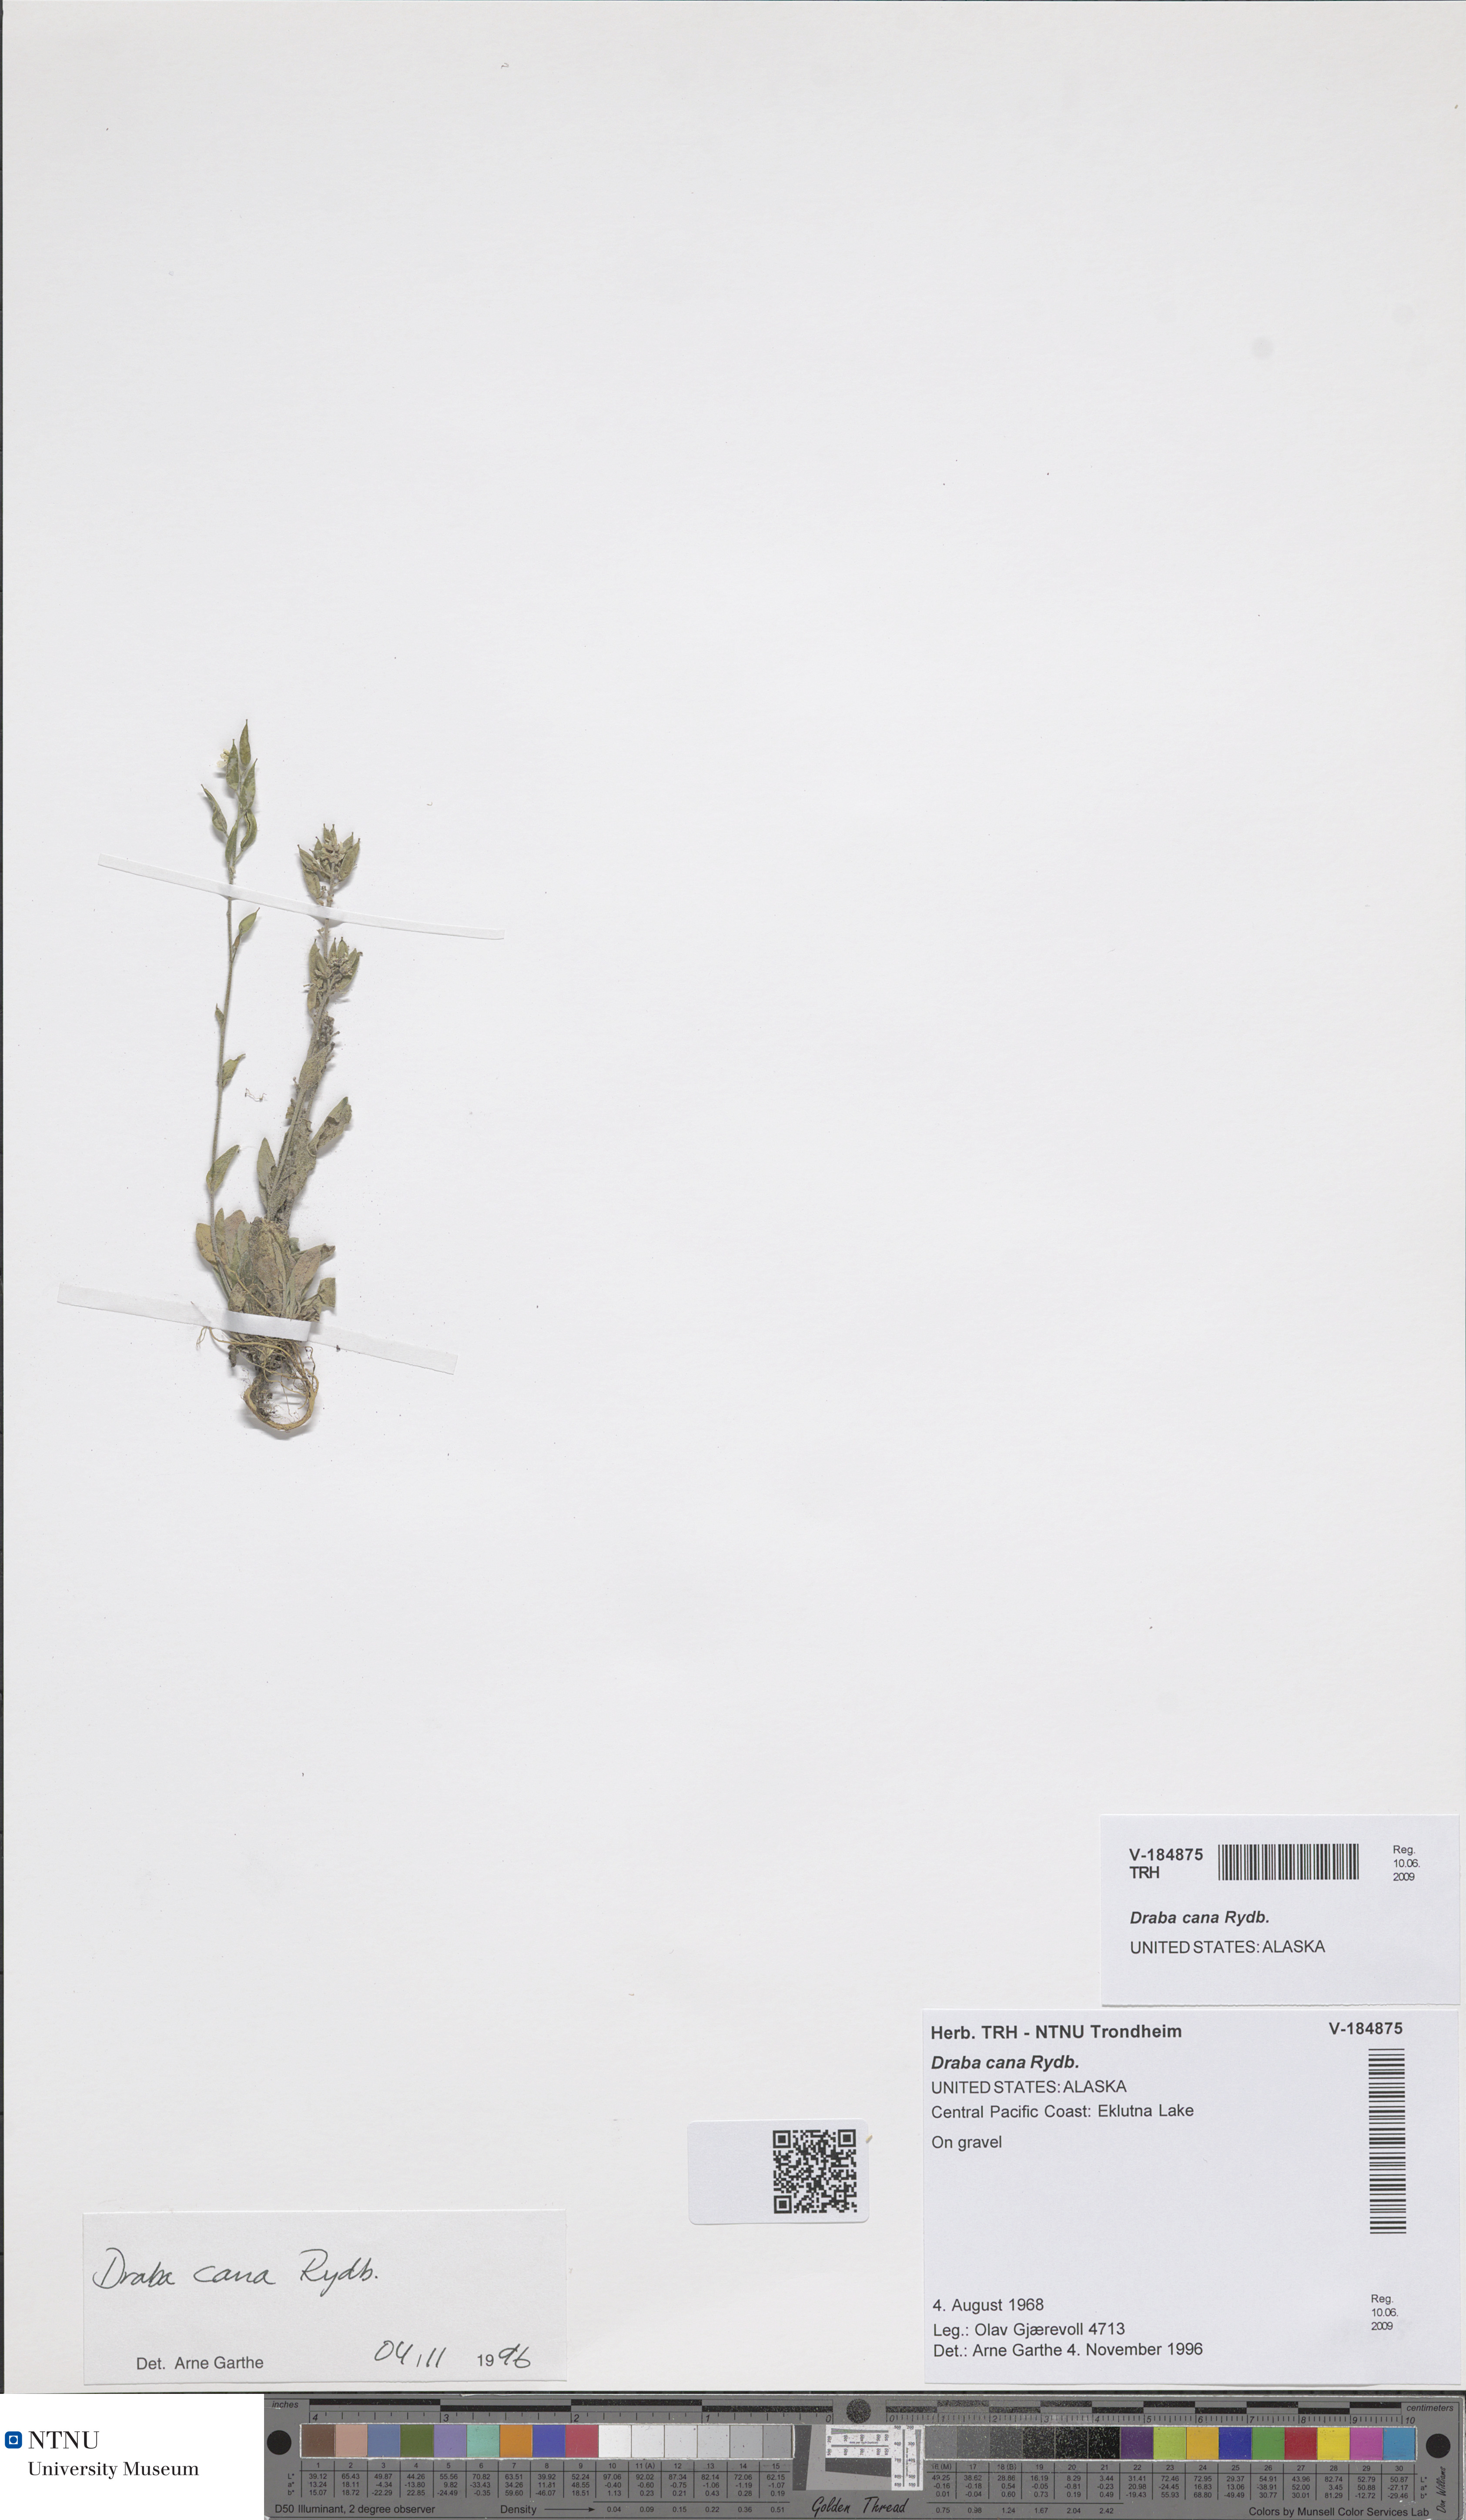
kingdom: Plantae
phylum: Tracheophyta
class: Magnoliopsida
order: Brassicales
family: Brassicaceae
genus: Draba
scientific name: Draba cana
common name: Hoary draba
